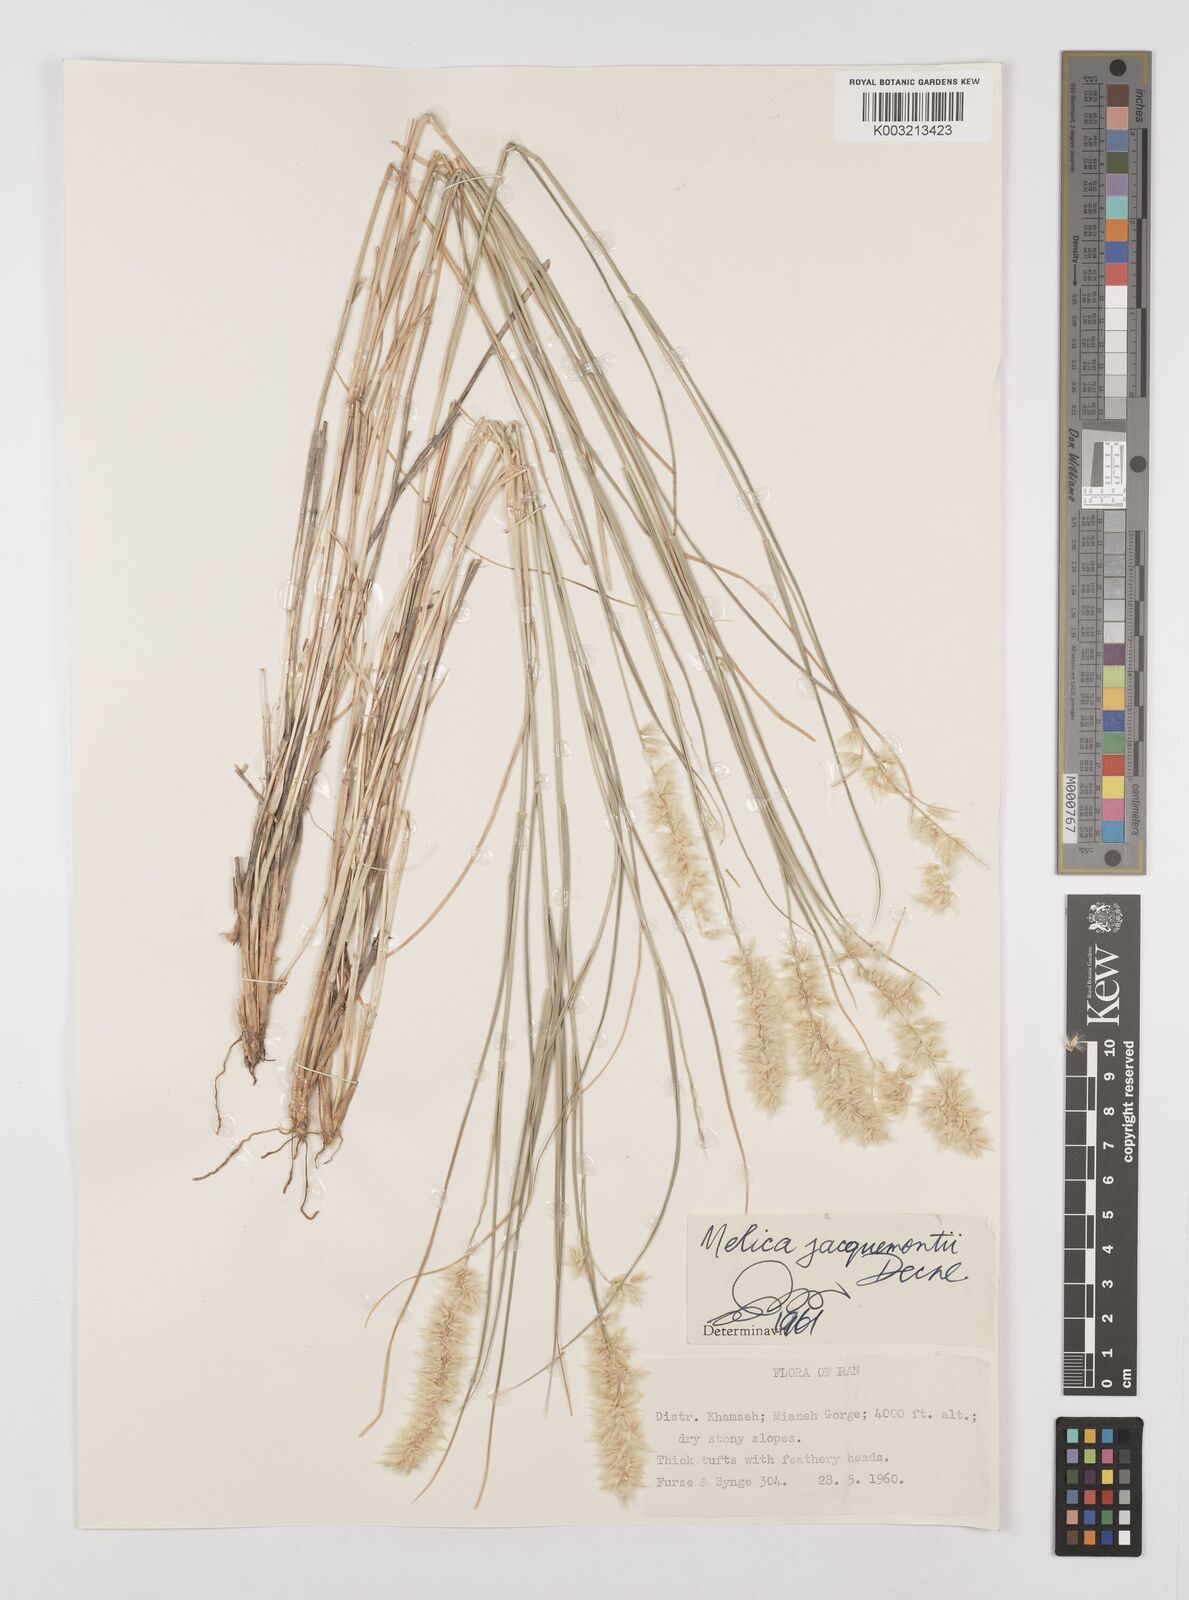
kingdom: Plantae
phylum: Tracheophyta
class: Liliopsida
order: Poales
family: Poaceae
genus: Melica
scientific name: Melica persica
